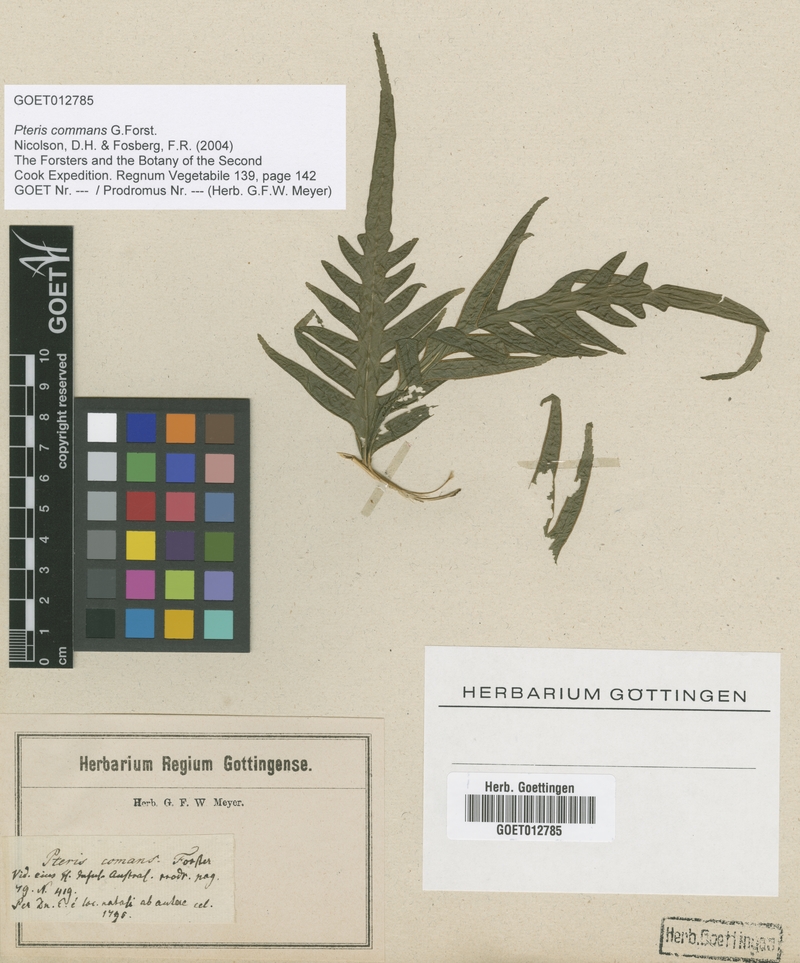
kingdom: Plantae
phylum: Tracheophyta
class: Polypodiopsida
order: Polypodiales
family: Pteridaceae
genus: Pteris
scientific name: Pteris comans
